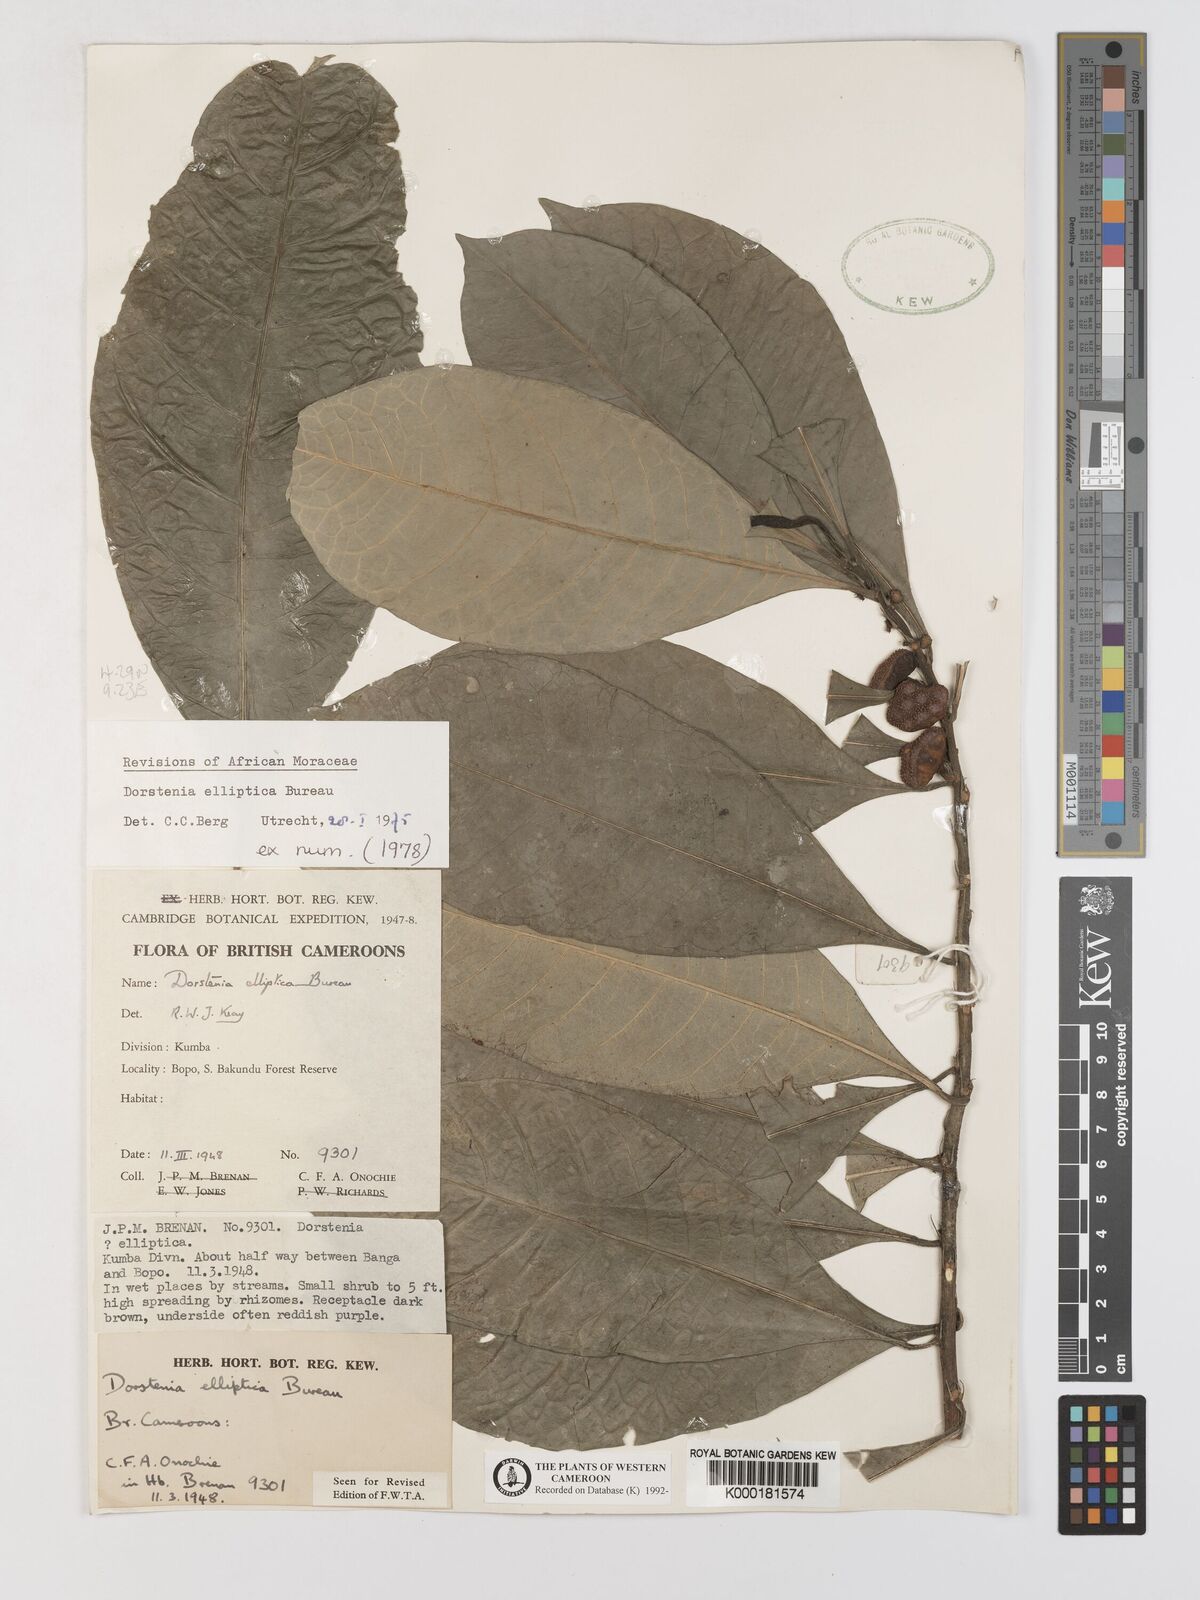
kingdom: Plantae
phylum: Tracheophyta
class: Magnoliopsida
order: Rosales
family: Moraceae
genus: Dorstenia
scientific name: Dorstenia elliptica
